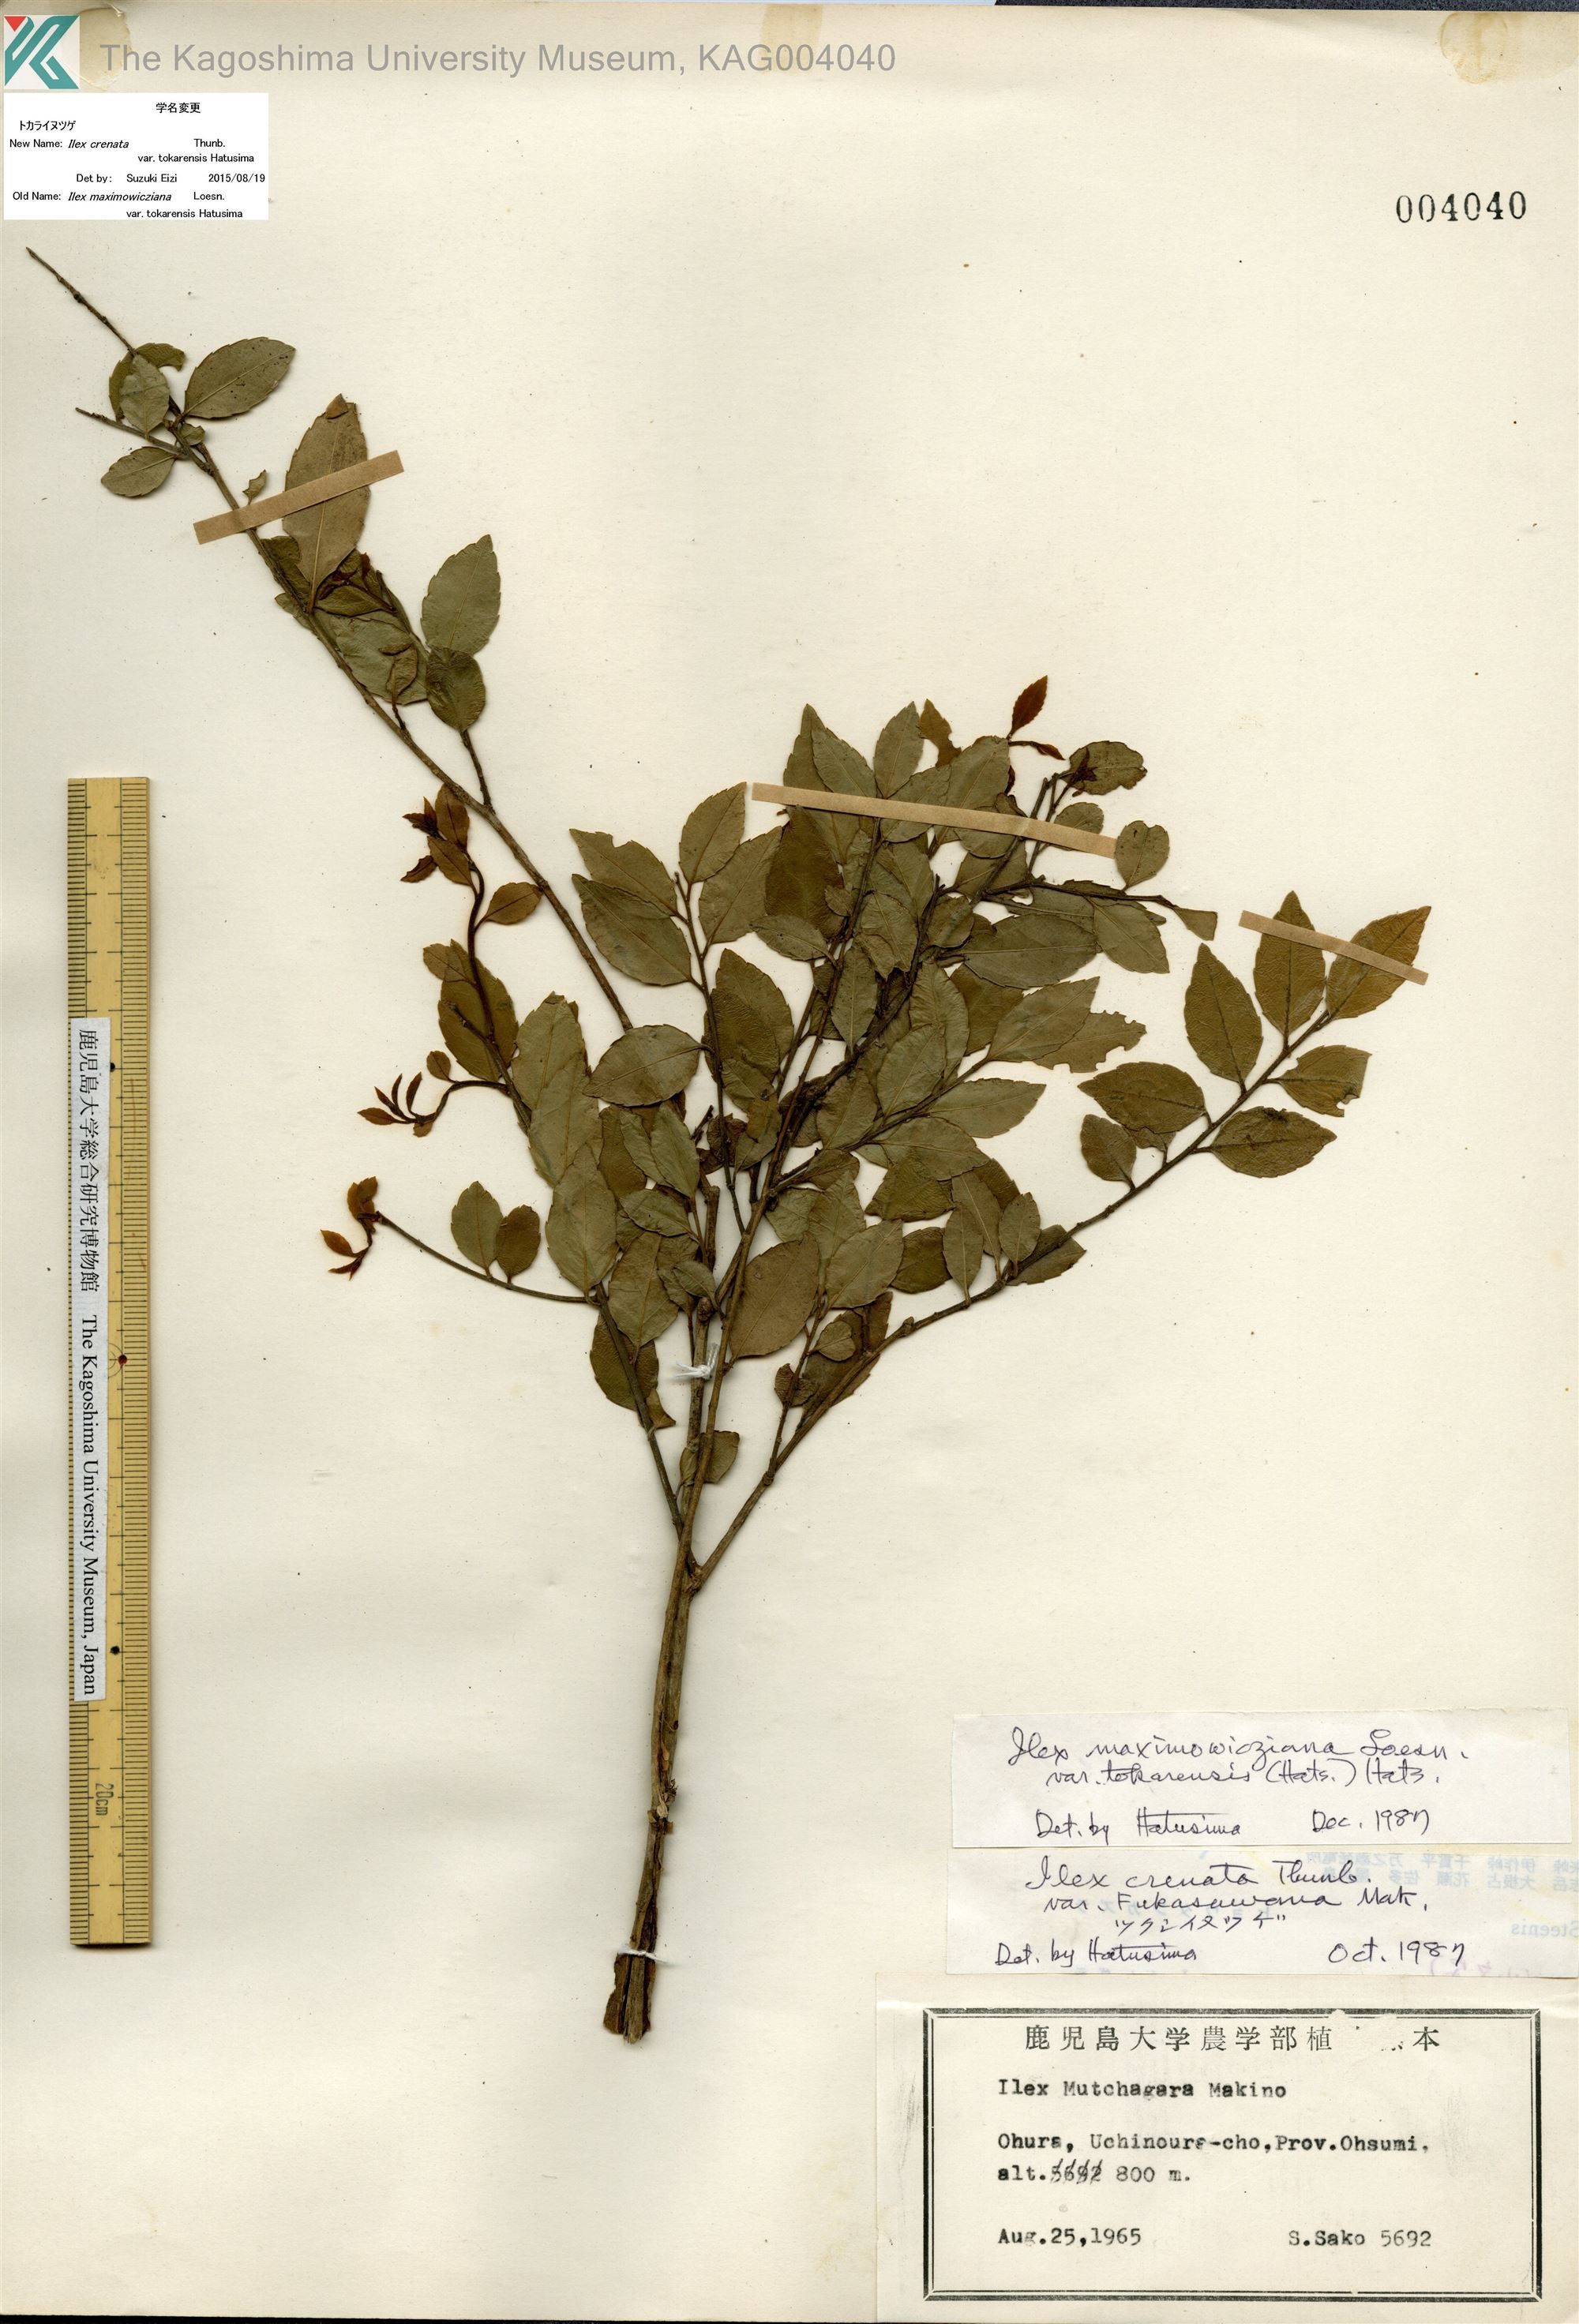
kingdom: Plantae
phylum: Tracheophyta
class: Magnoliopsida
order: Aquifoliales
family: Aquifoliaceae
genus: Ilex
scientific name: Ilex crenata
